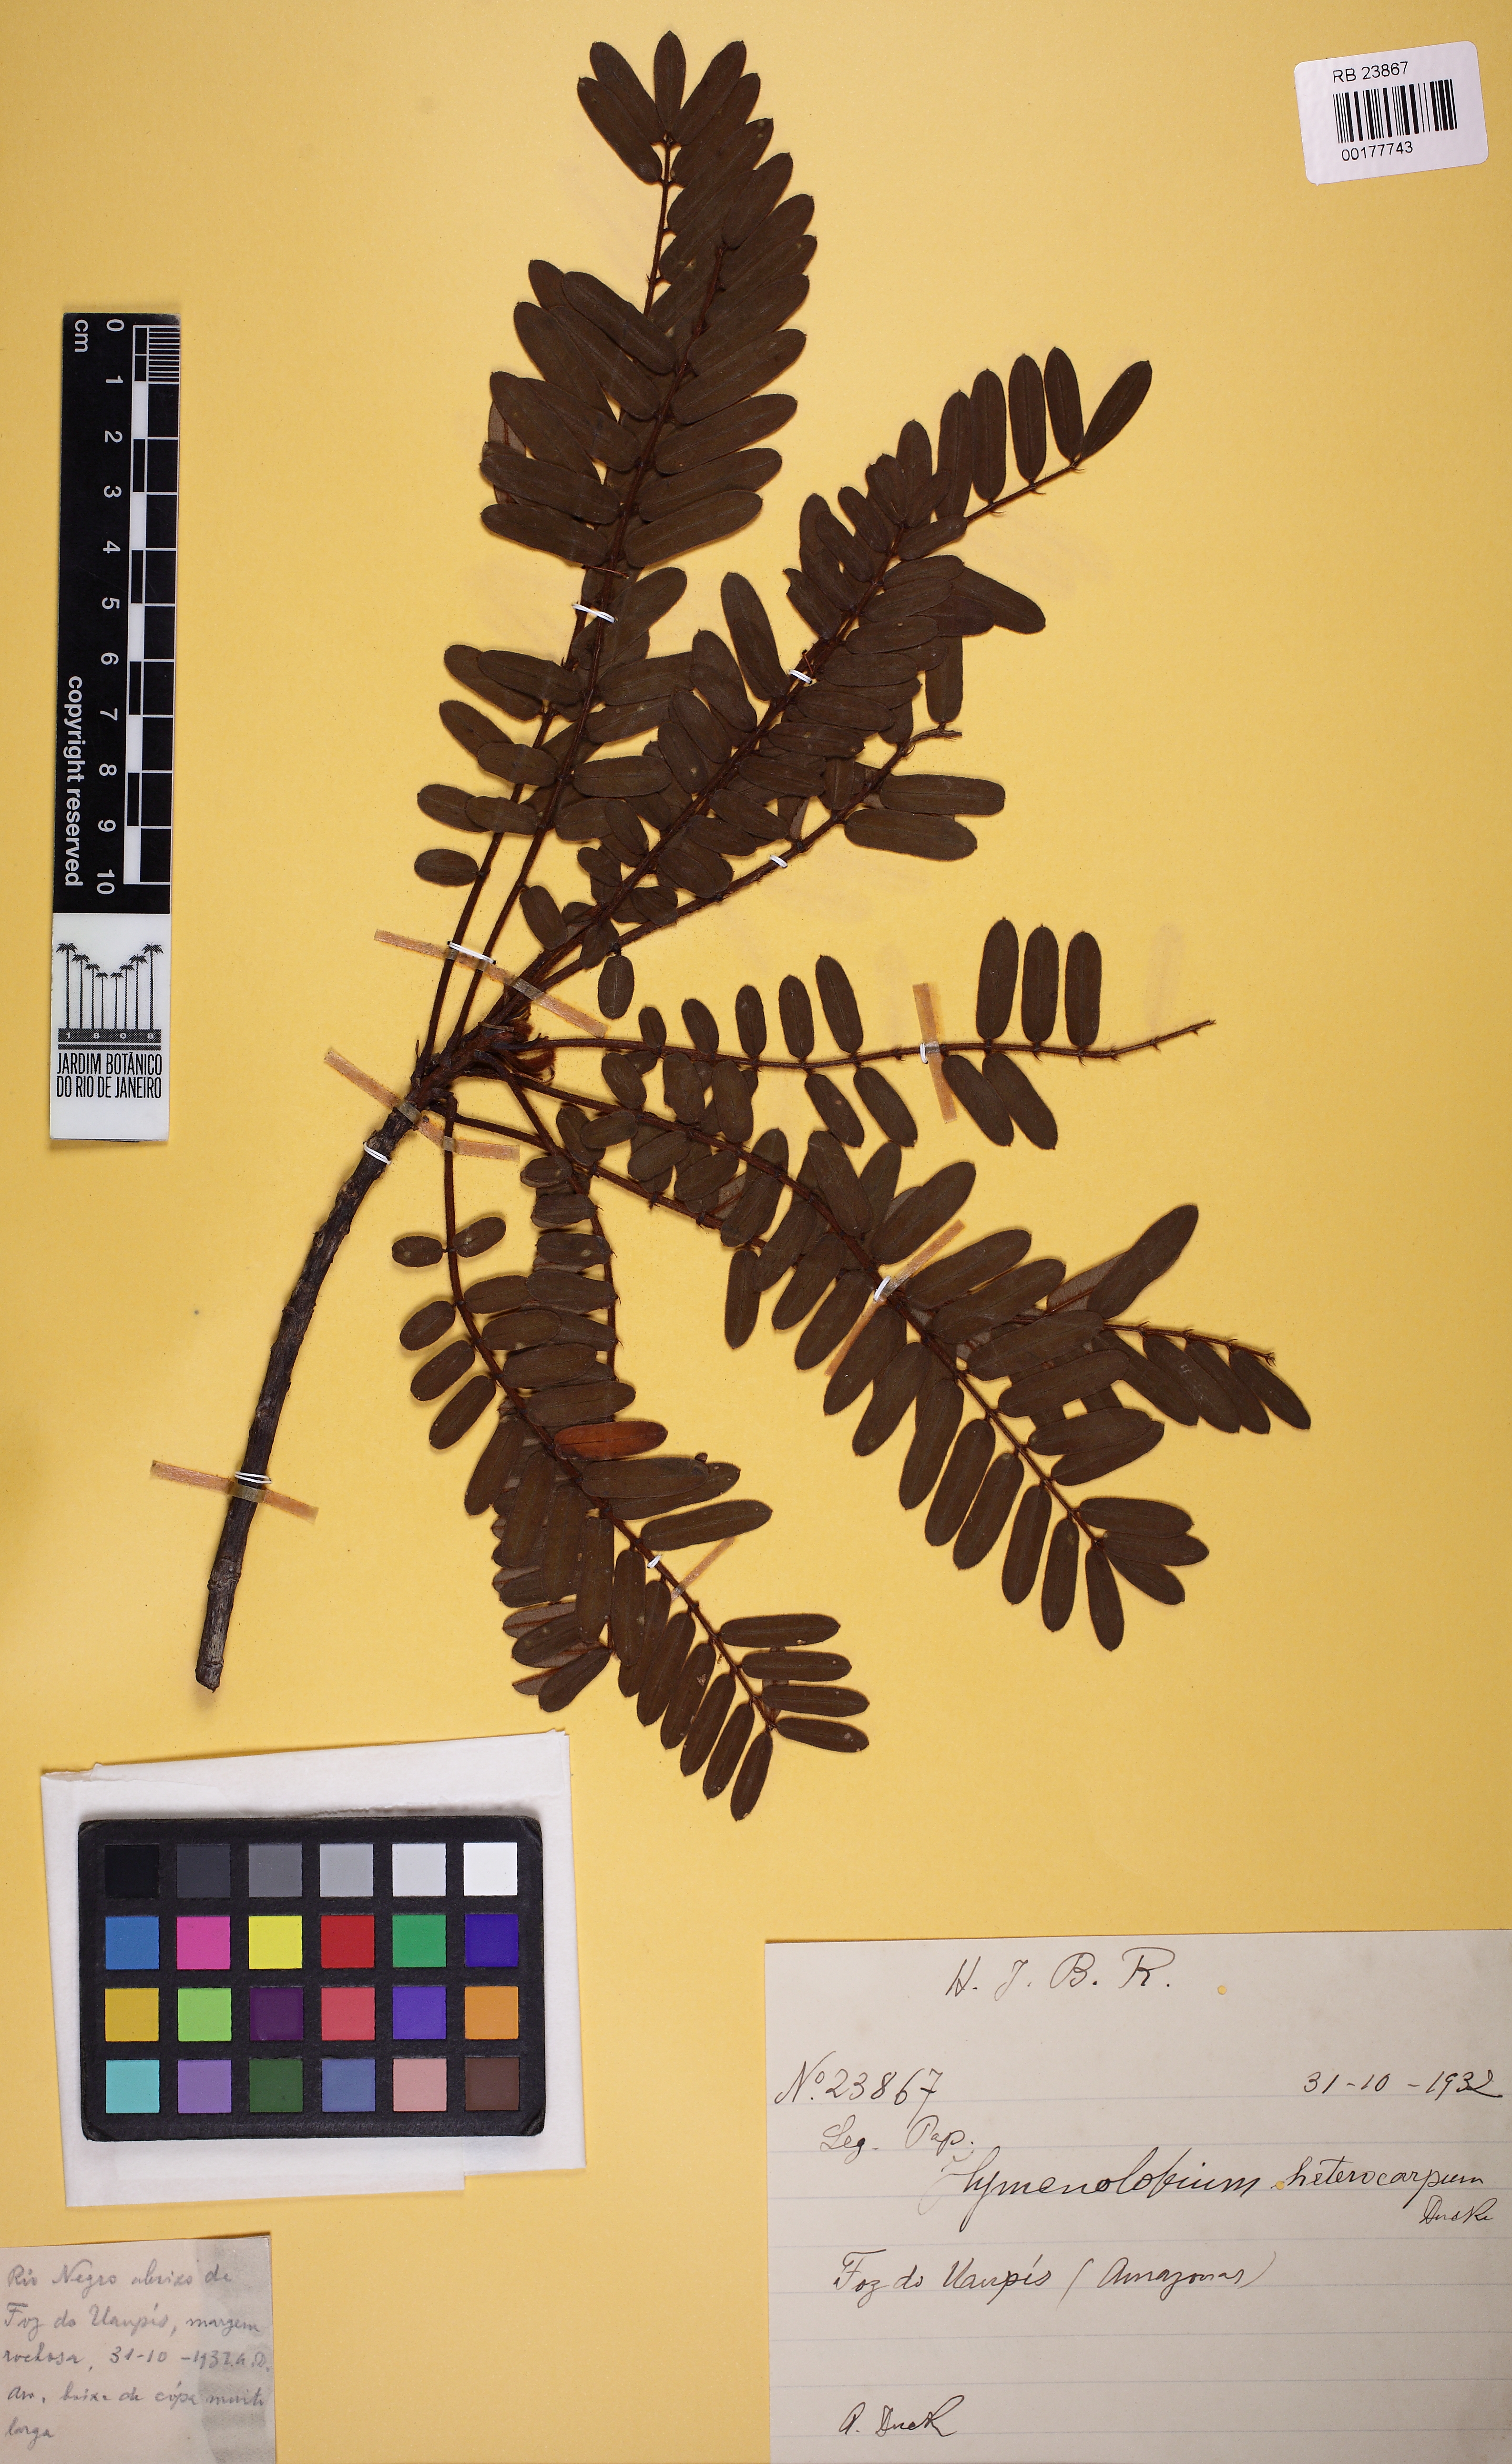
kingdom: Plantae
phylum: Tracheophyta
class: Magnoliopsida
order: Fabales
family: Fabaceae
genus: Hymenolobium
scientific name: Hymenolobium heringeranum
